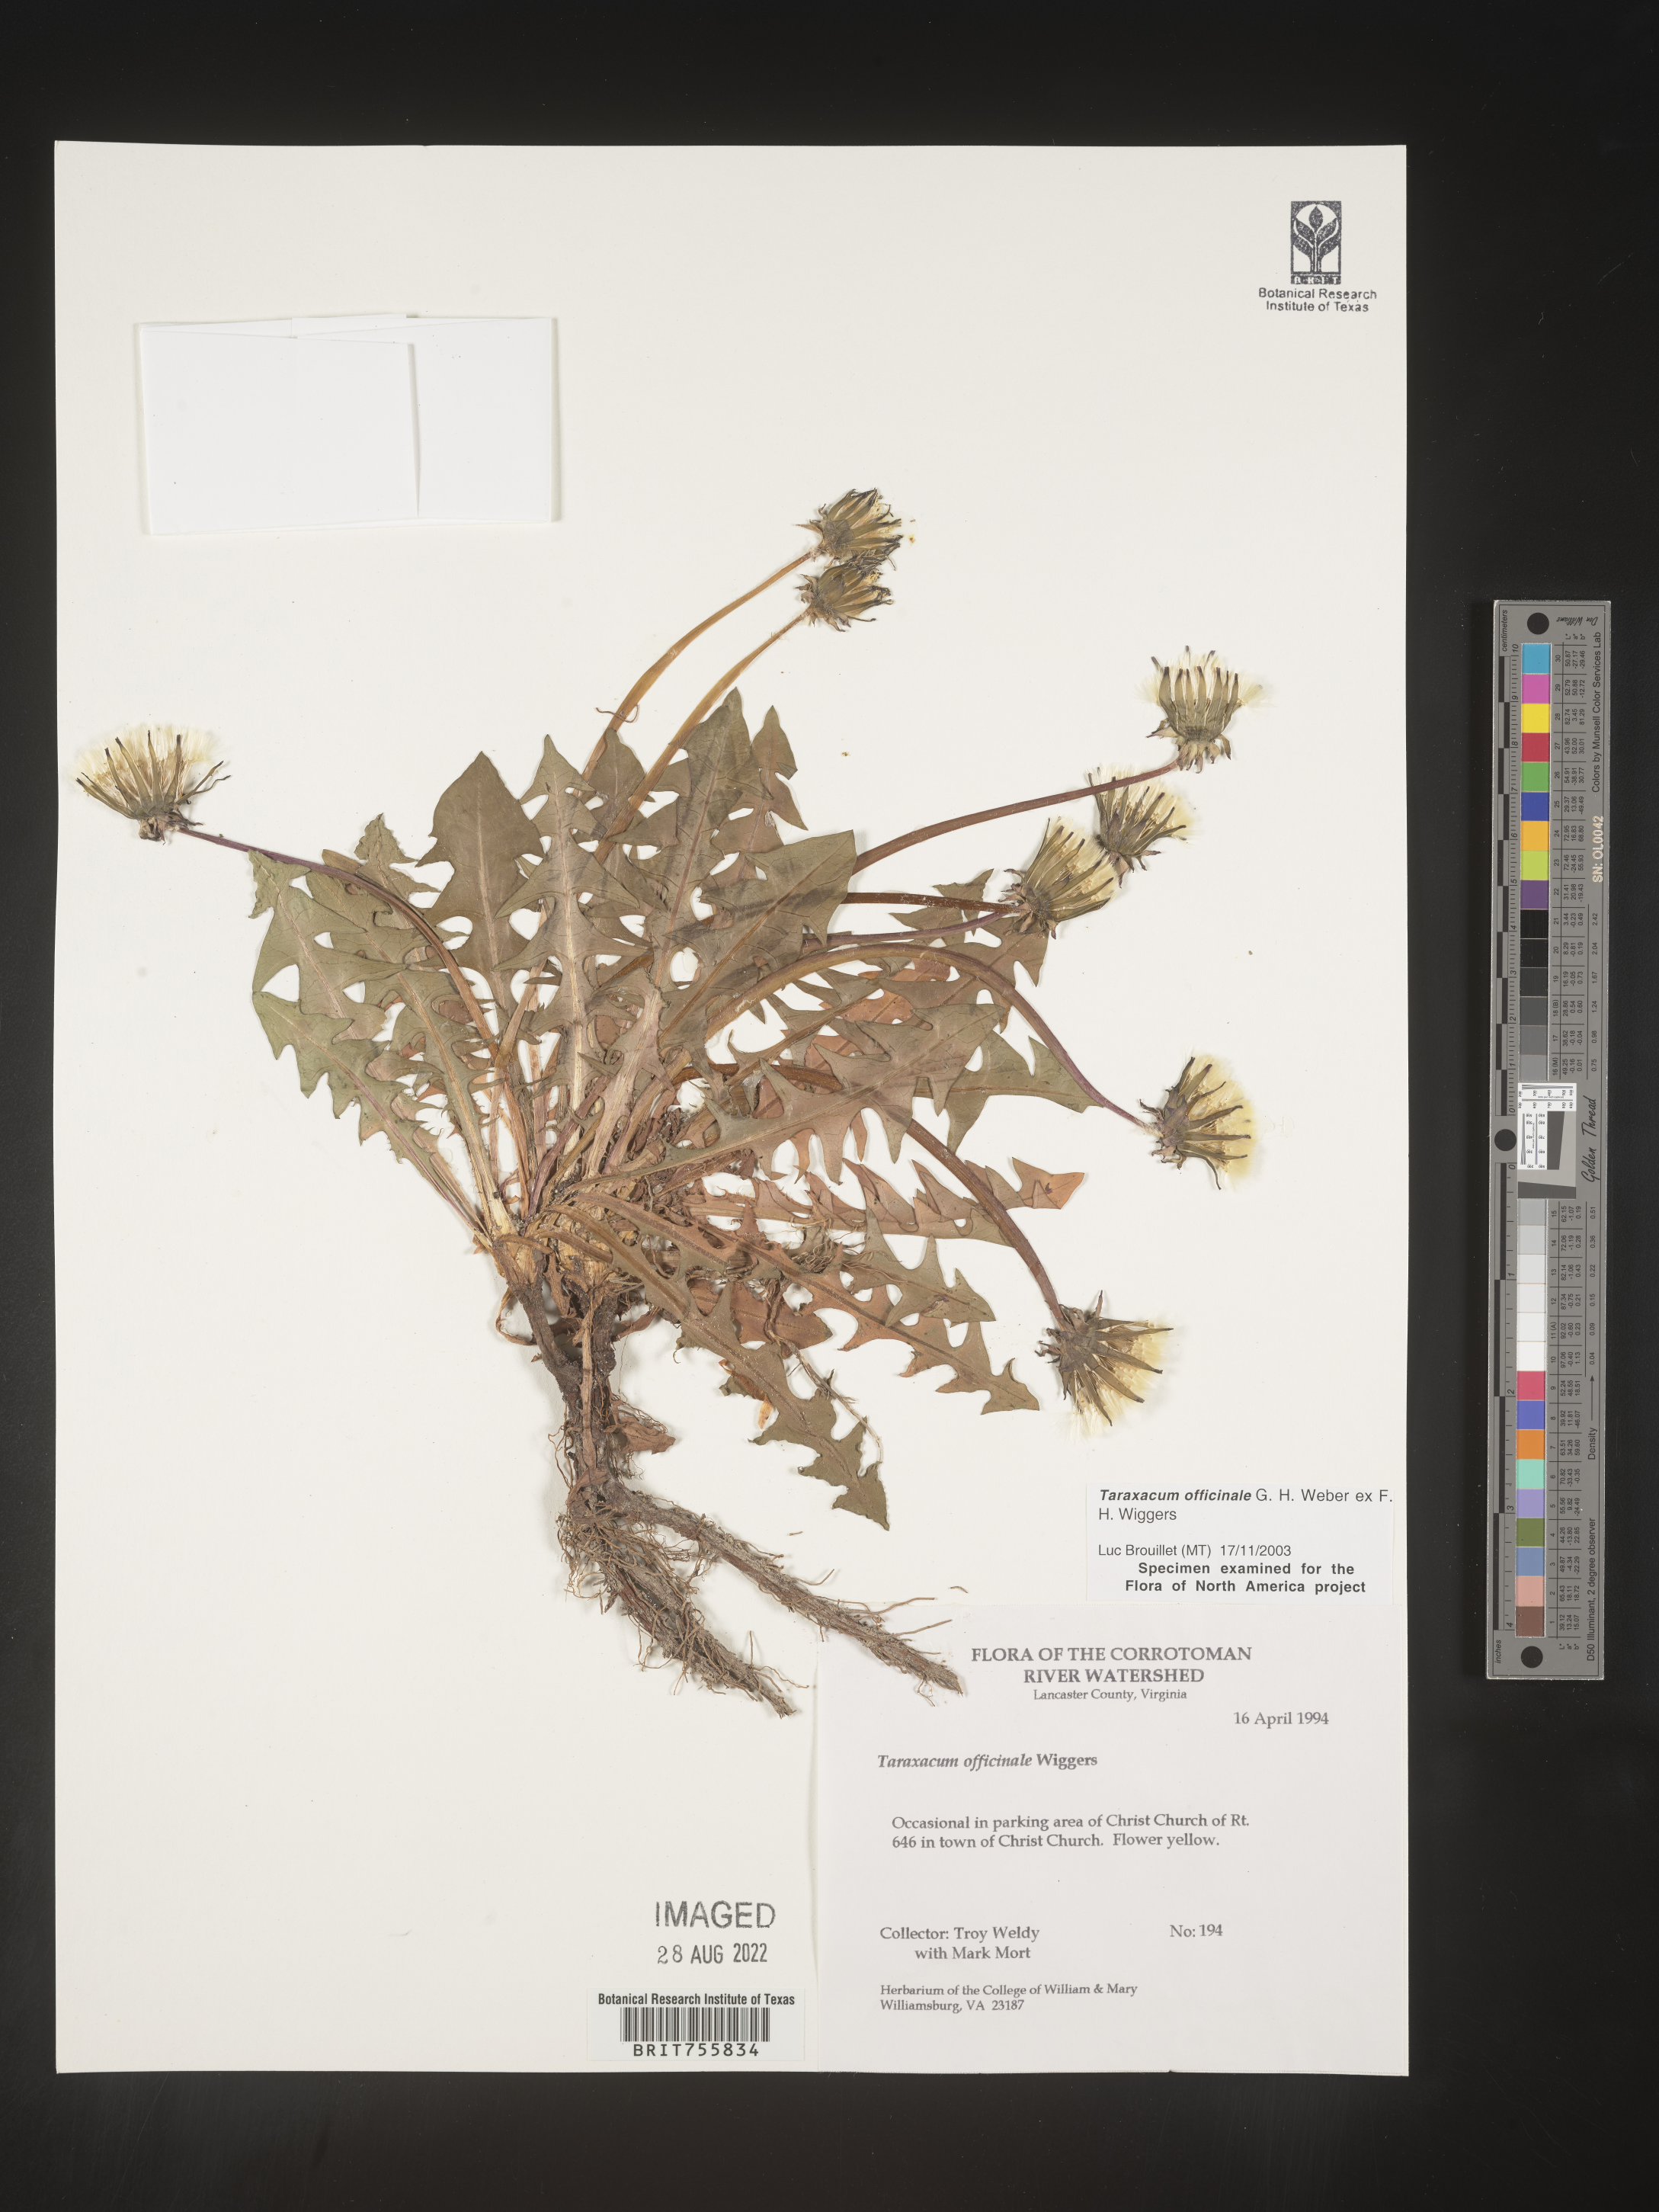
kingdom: Plantae
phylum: Tracheophyta
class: Magnoliopsida
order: Asterales
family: Asteraceae
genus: Taraxacum
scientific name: Taraxacum officinale
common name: Common dandelion
